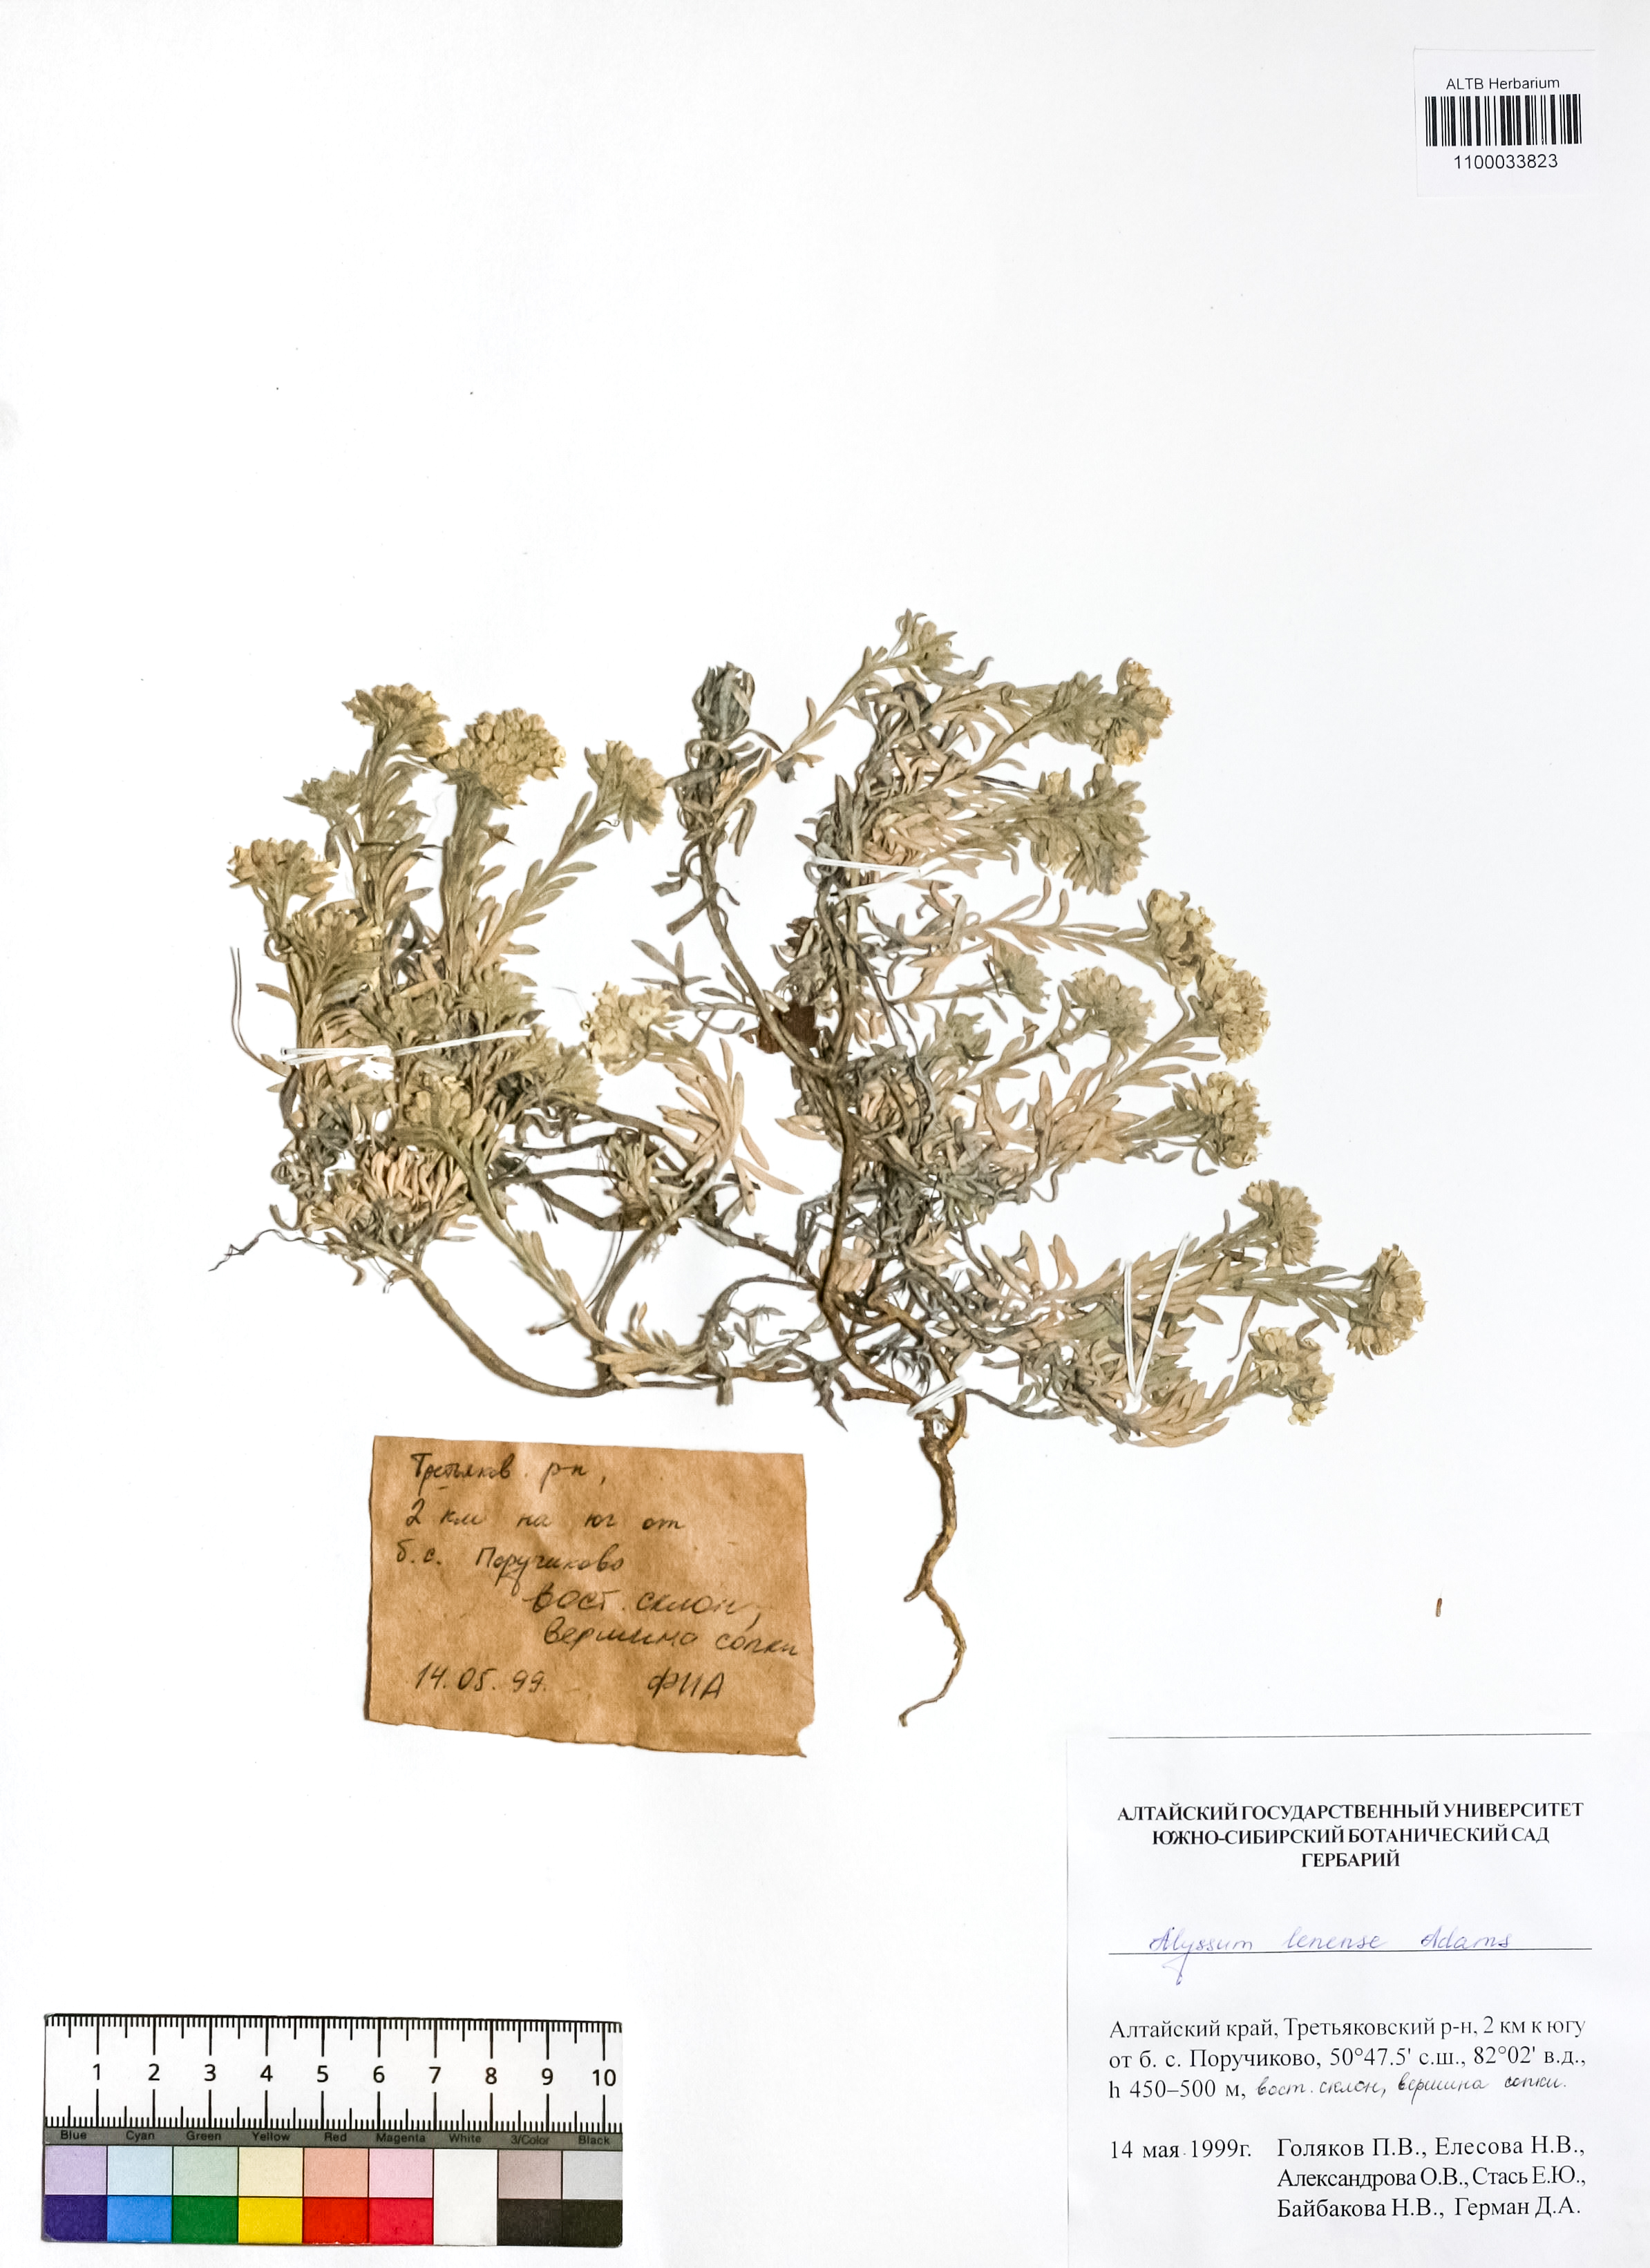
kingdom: Plantae
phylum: Tracheophyta
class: Magnoliopsida
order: Brassicales
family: Brassicaceae
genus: Alyssum
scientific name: Alyssum lenense
